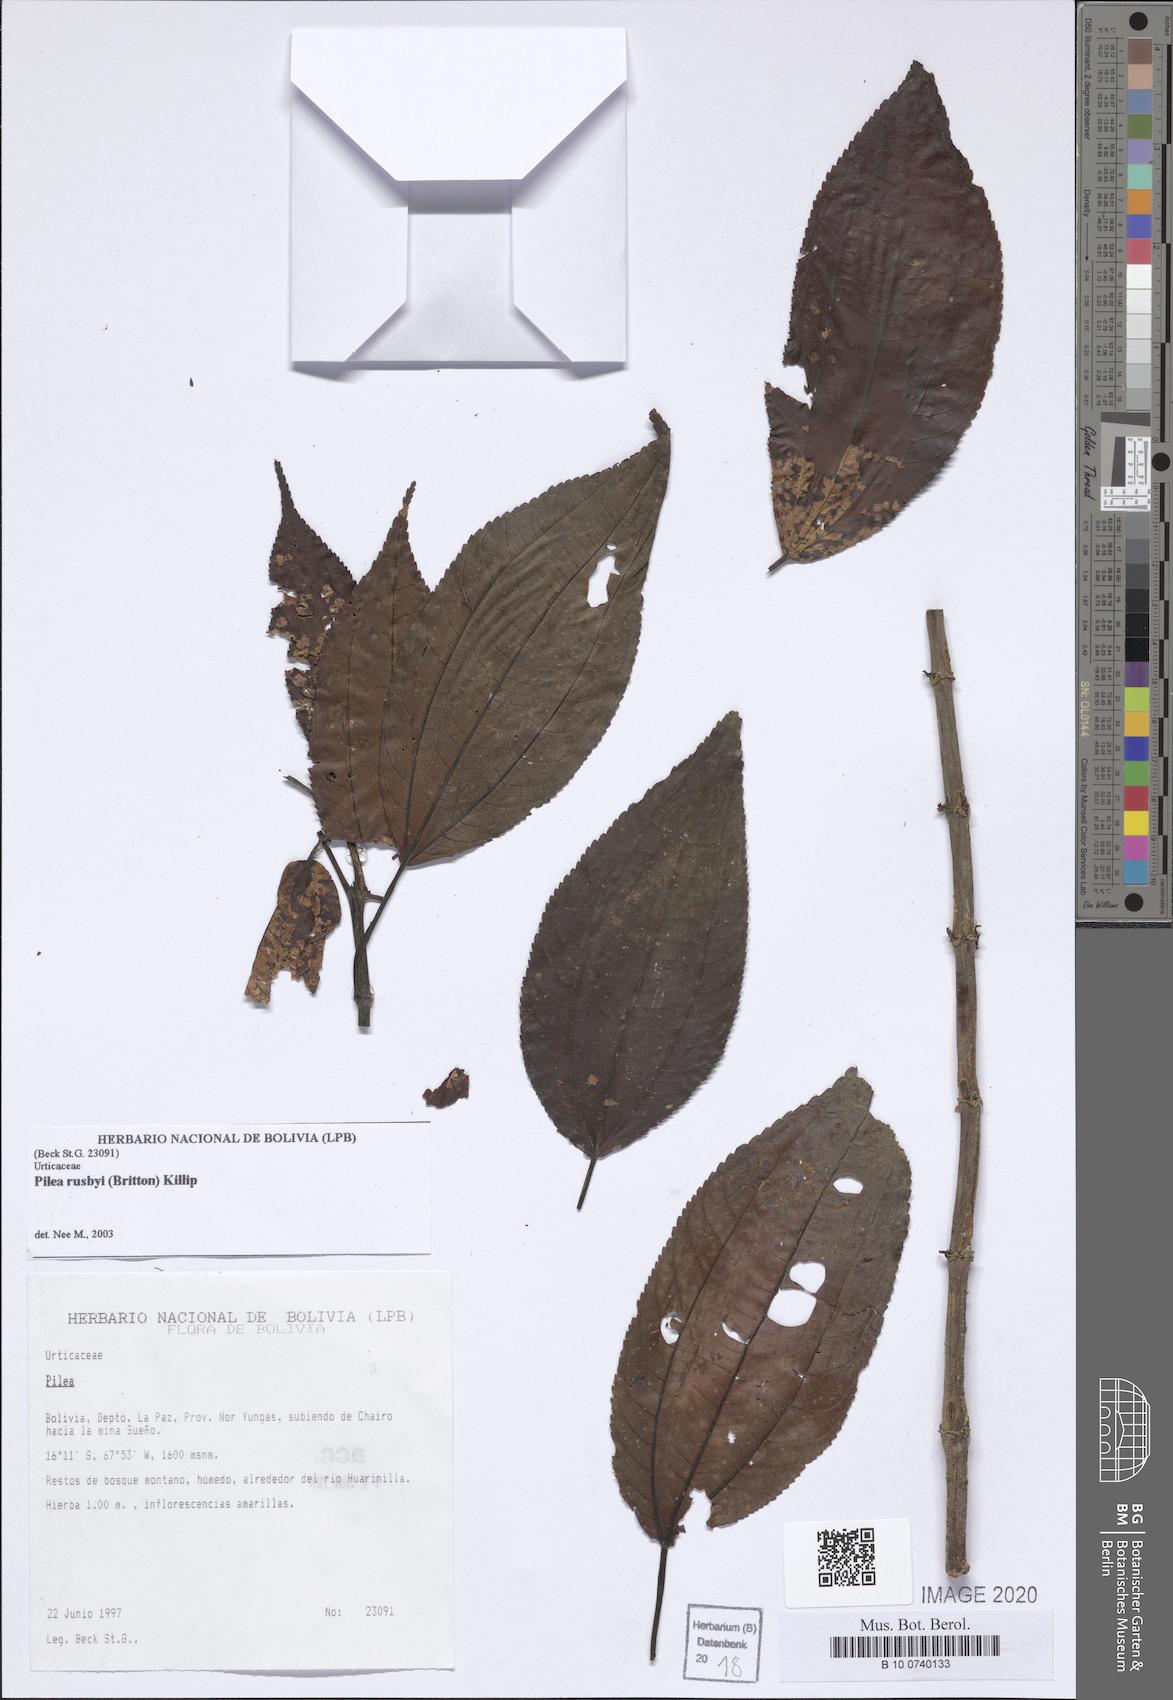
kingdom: Plantae
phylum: Tracheophyta
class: Magnoliopsida
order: Rosales
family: Urticaceae
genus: Pilea
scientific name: Pilea rusbyi
